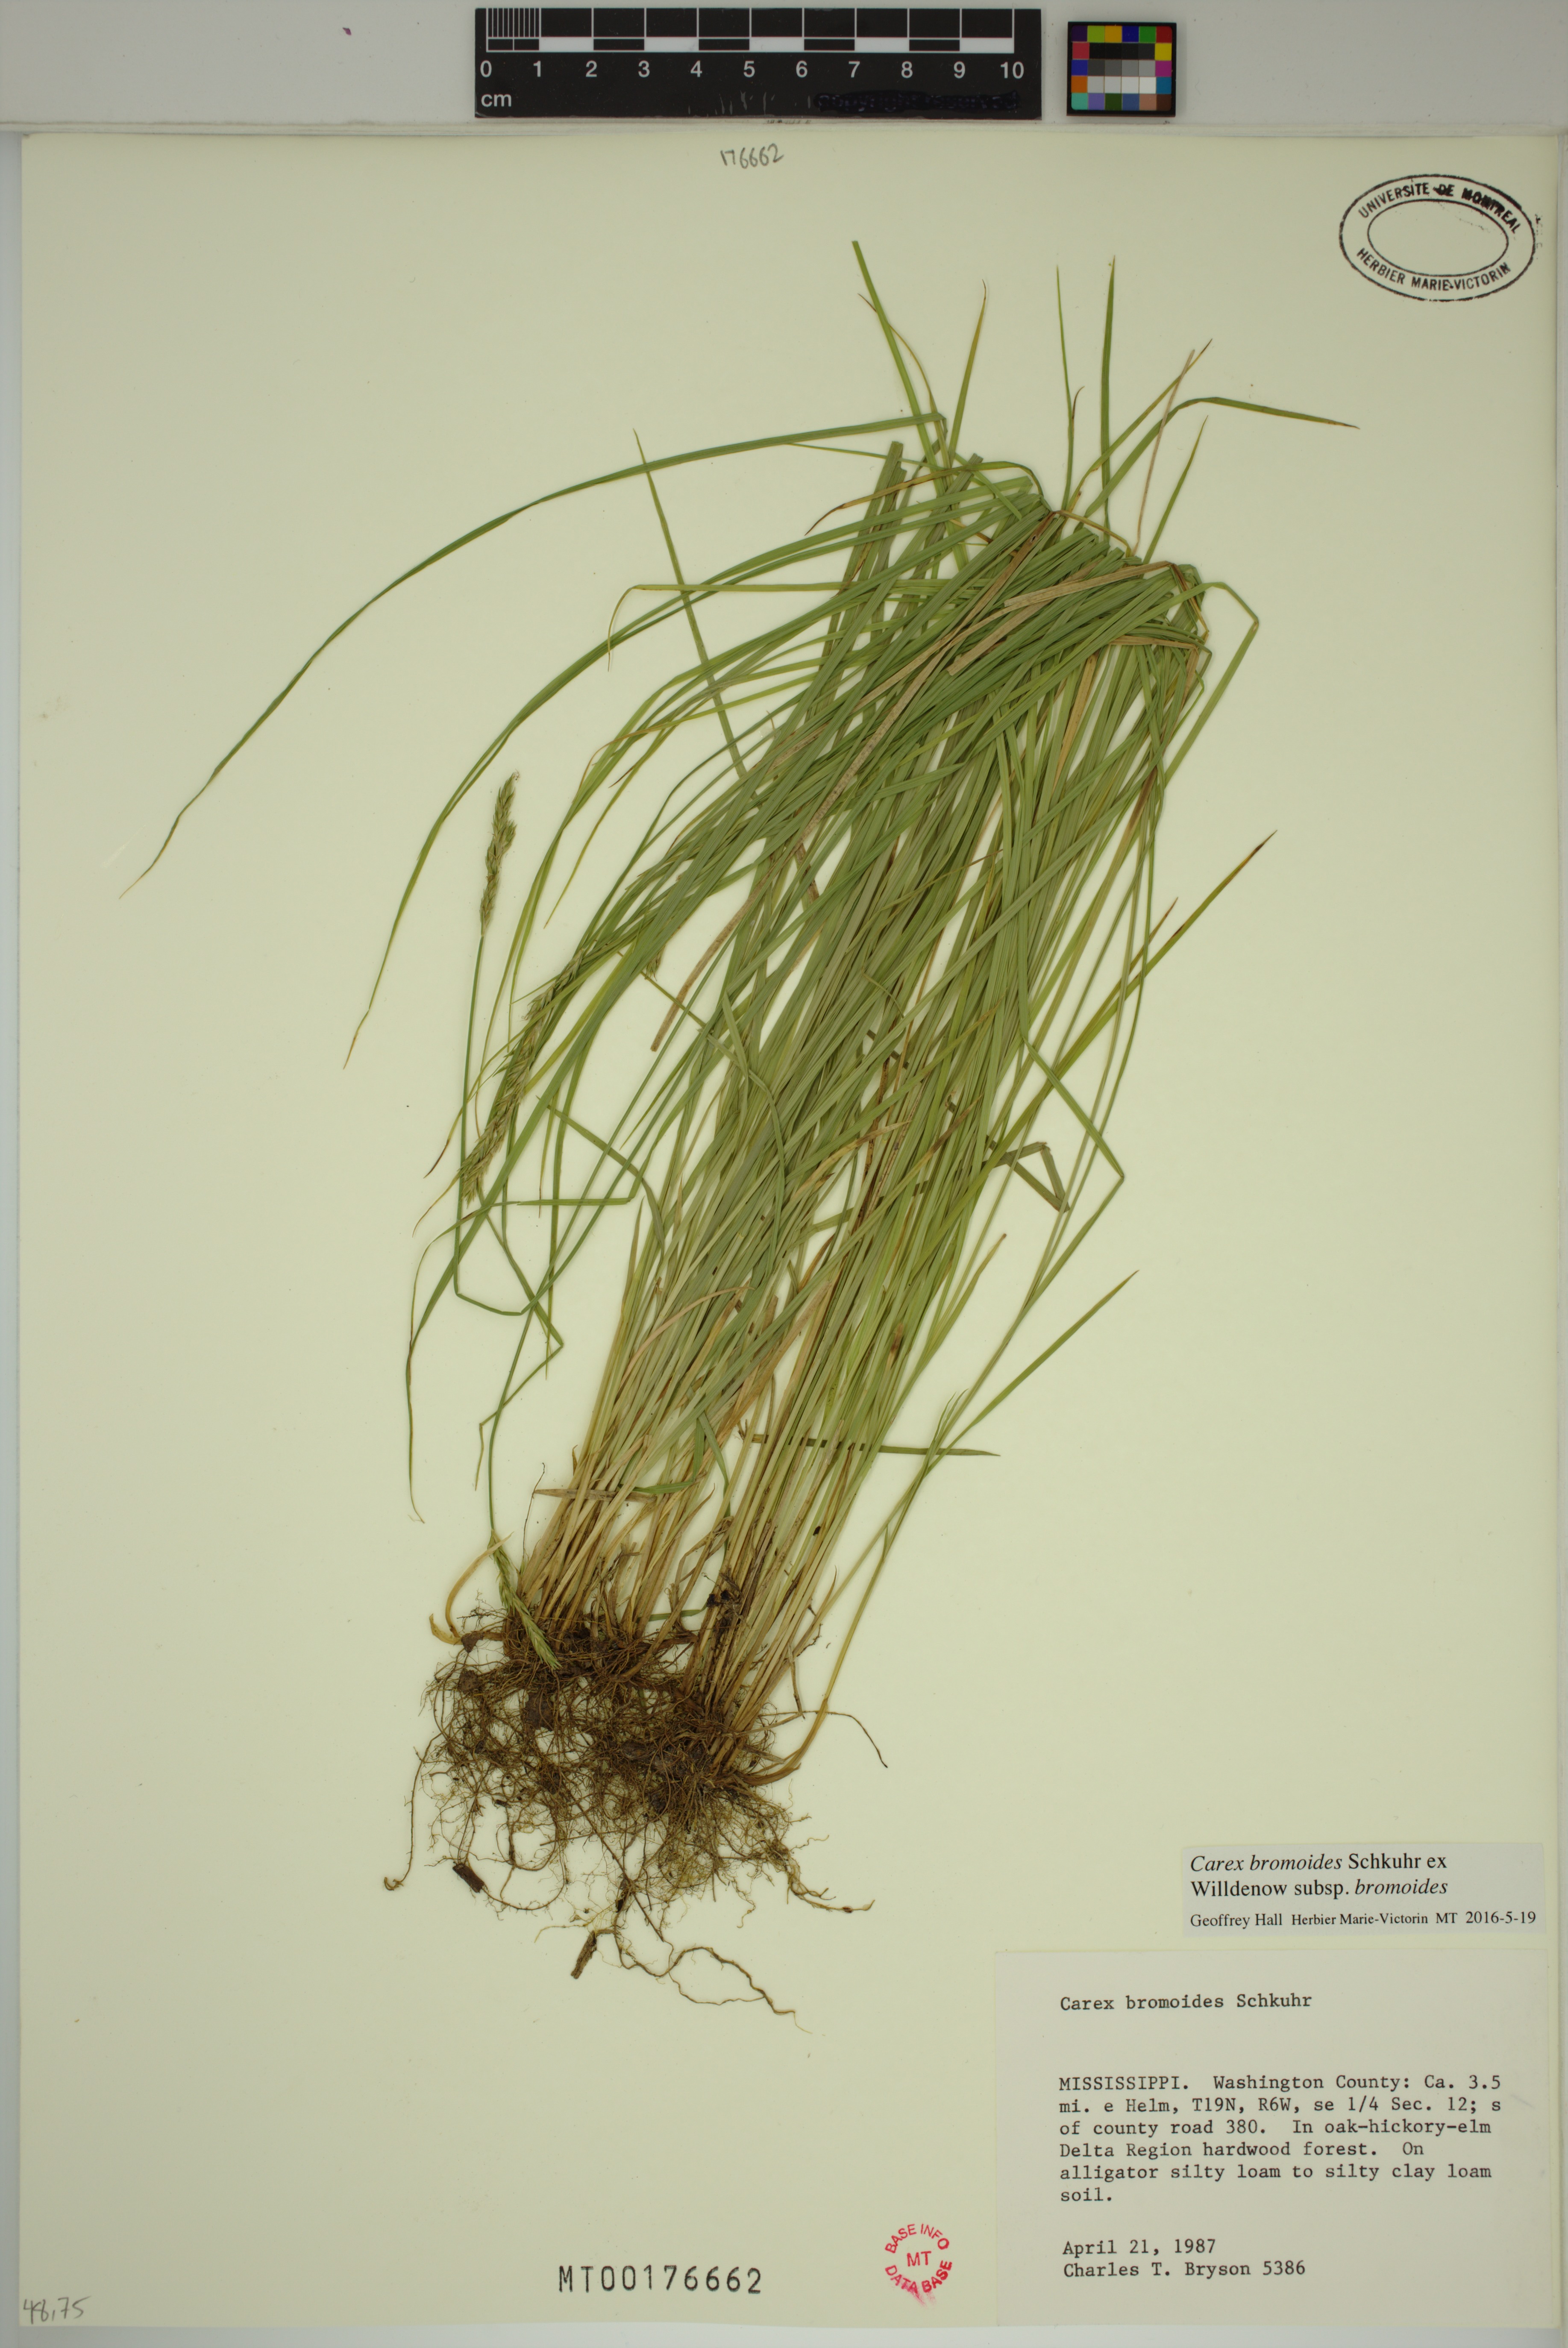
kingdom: Plantae
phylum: Tracheophyta
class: Liliopsida
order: Poales
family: Cyperaceae
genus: Carex
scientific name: Carex bromoides
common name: Brome hummock sedge
